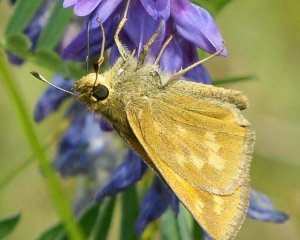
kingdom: Animalia
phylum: Arthropoda
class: Insecta
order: Lepidoptera
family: Hesperiidae
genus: Hesperia
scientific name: Hesperia sassacus
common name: Sassacus Skipper
